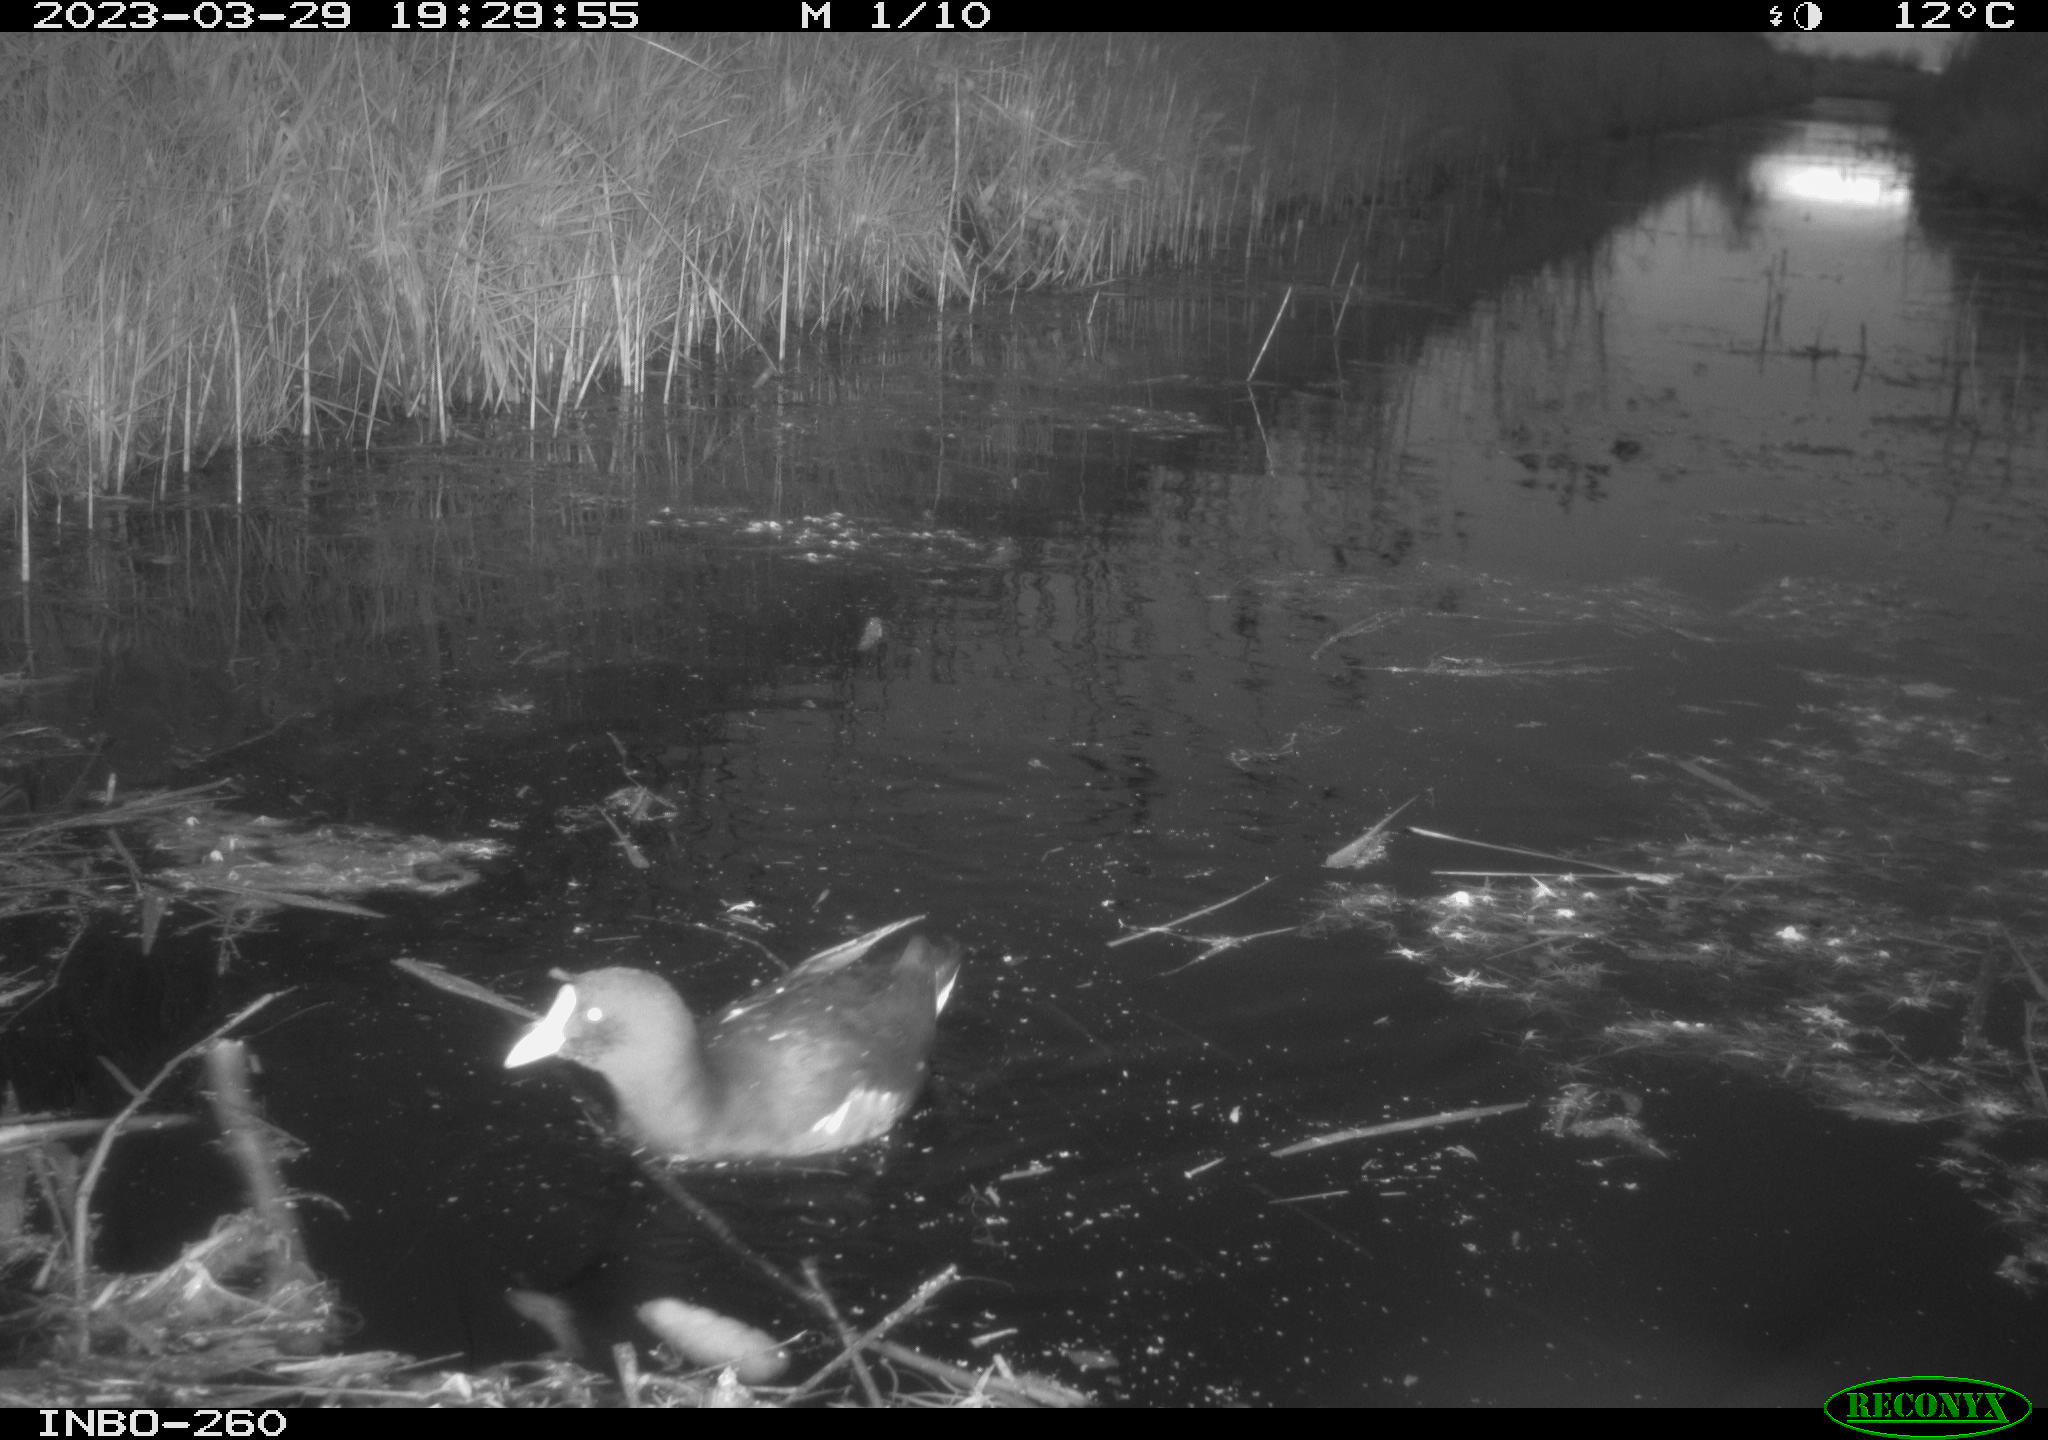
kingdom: Animalia
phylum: Chordata
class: Aves
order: Gruiformes
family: Rallidae
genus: Gallinula
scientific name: Gallinula chloropus
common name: Common moorhen
